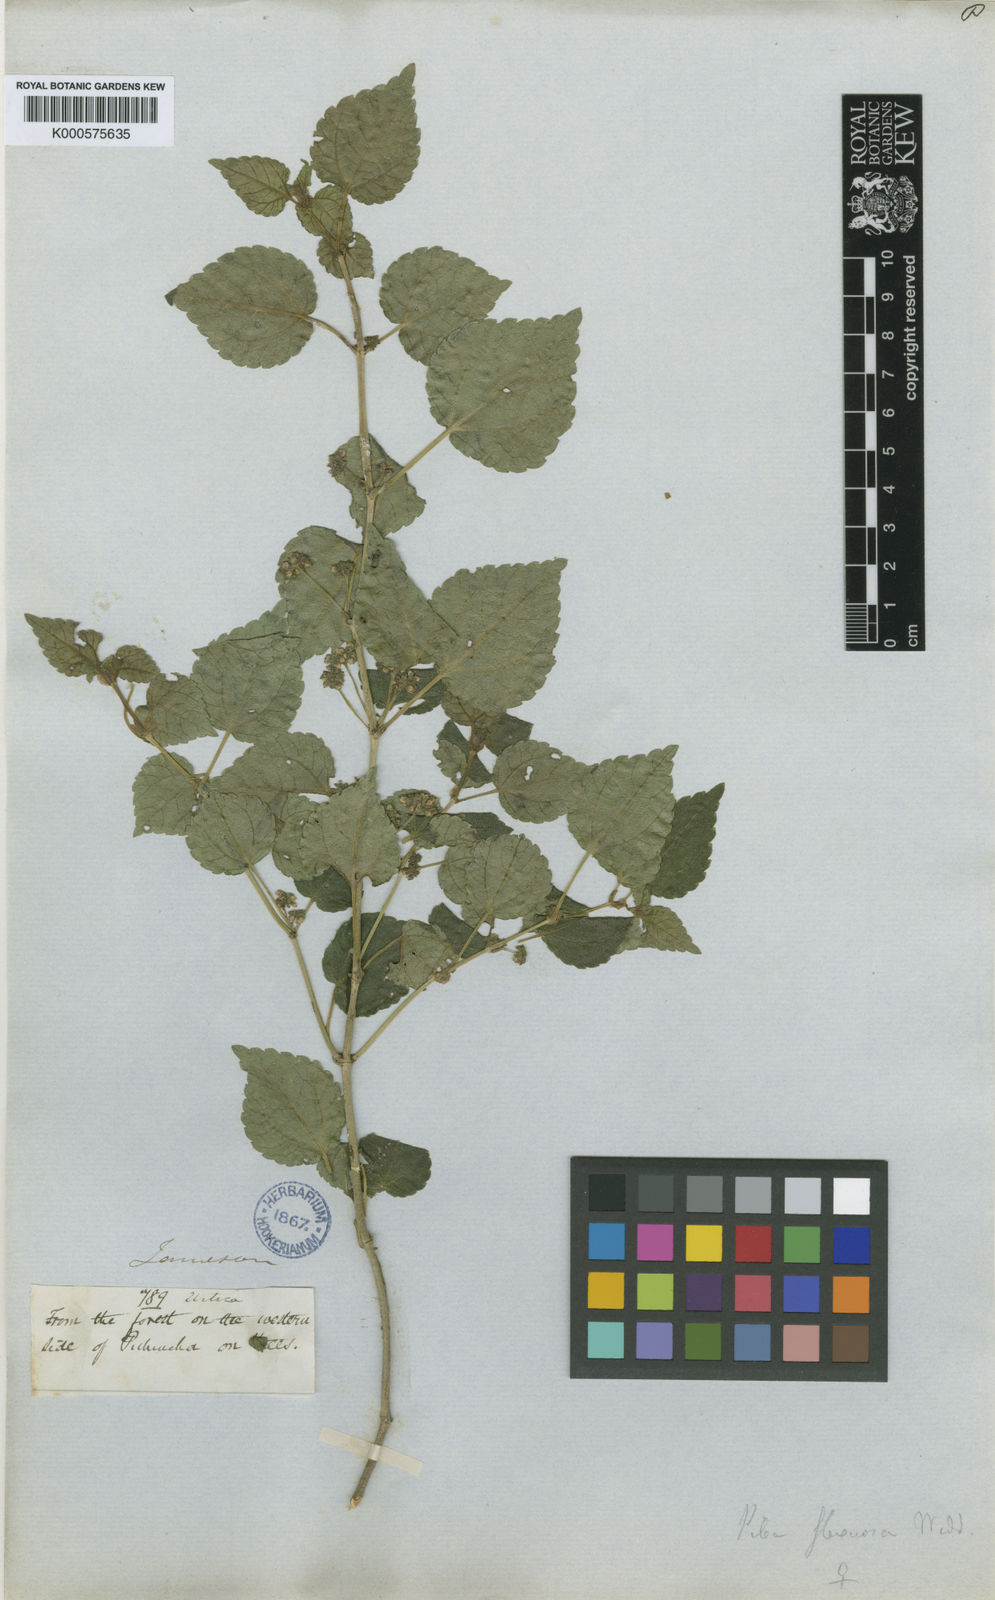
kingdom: Plantae
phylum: Tracheophyta
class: Magnoliopsida
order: Rosales
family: Urticaceae
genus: Pilea
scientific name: Pilea flexuosa
